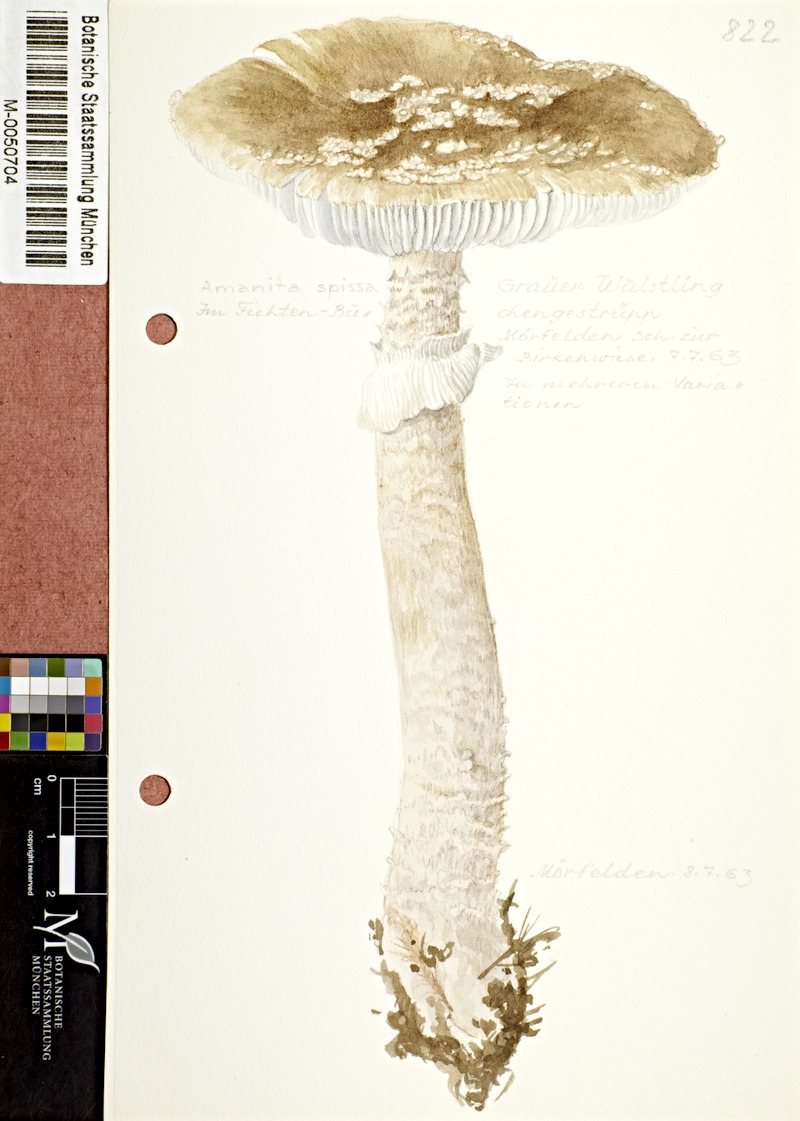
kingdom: Fungi
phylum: Basidiomycota
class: Agaricomycetes
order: Agaricales
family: Amanitaceae
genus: Amanita
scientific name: Amanita excelsa
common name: European false blusher
